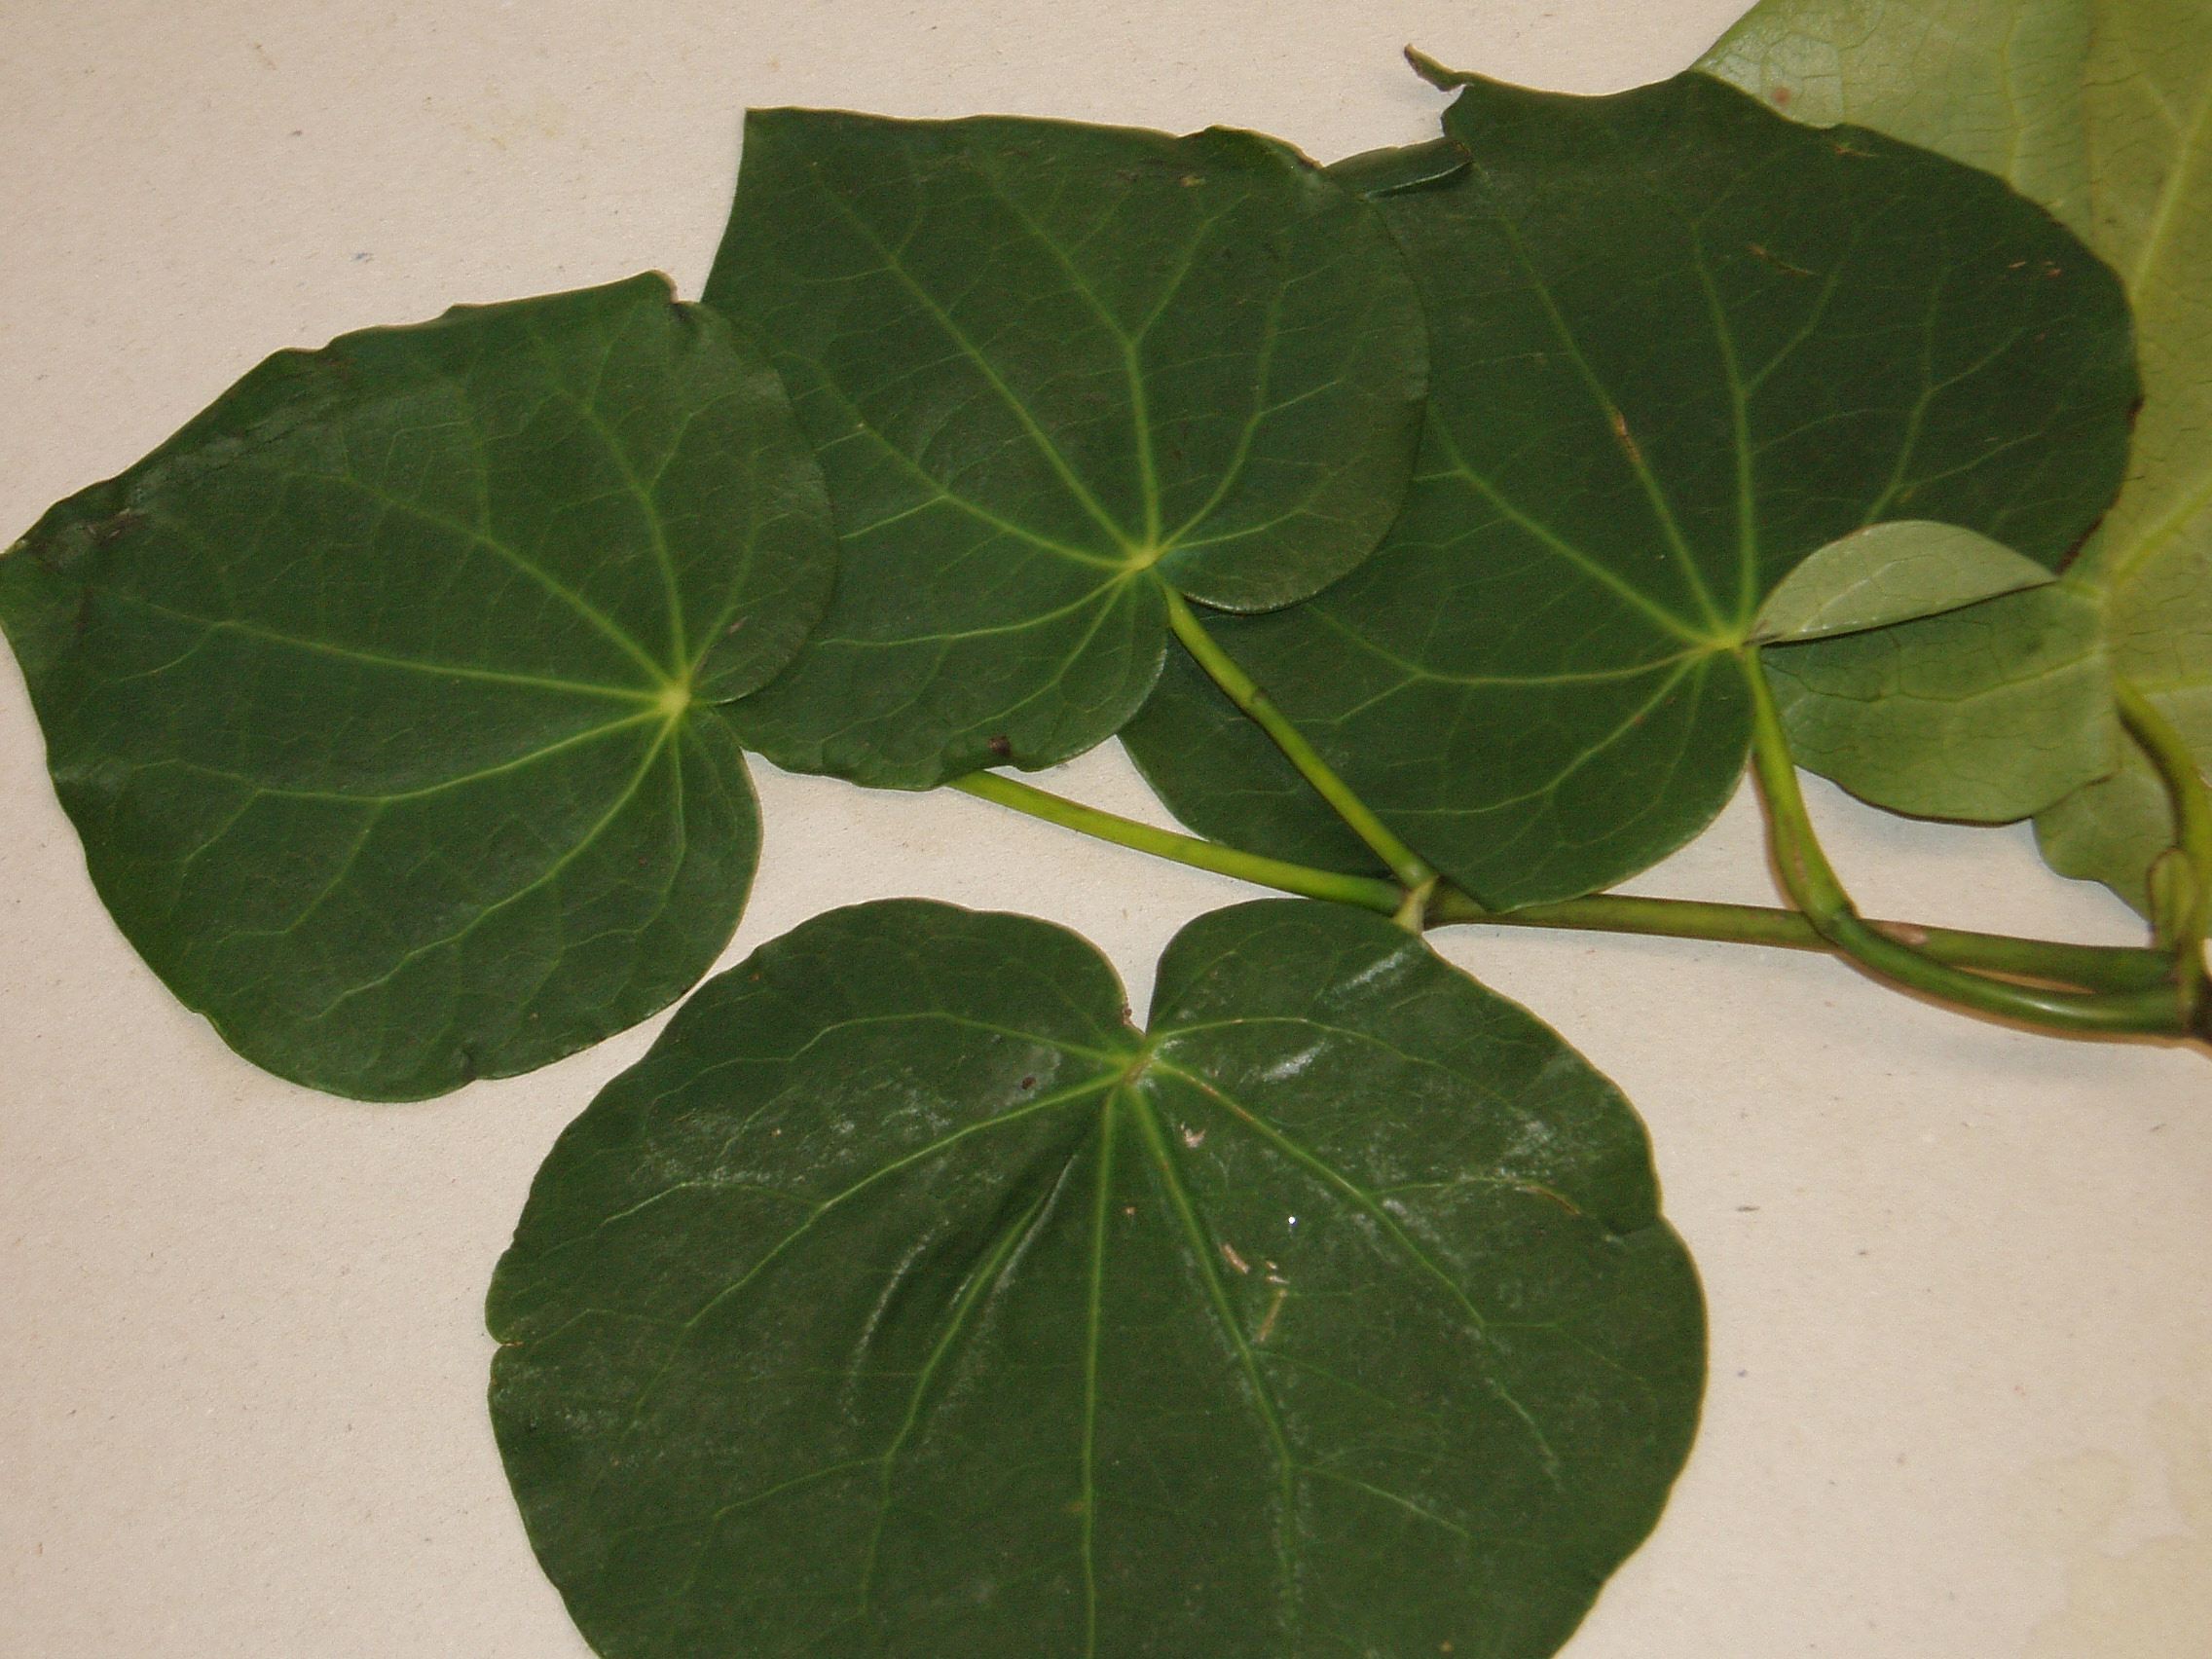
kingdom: Plantae
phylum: Tracheophyta
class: Magnoliopsida
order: Piperales
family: Piperaceae
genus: Macropiper
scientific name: Macropiper excelsum
